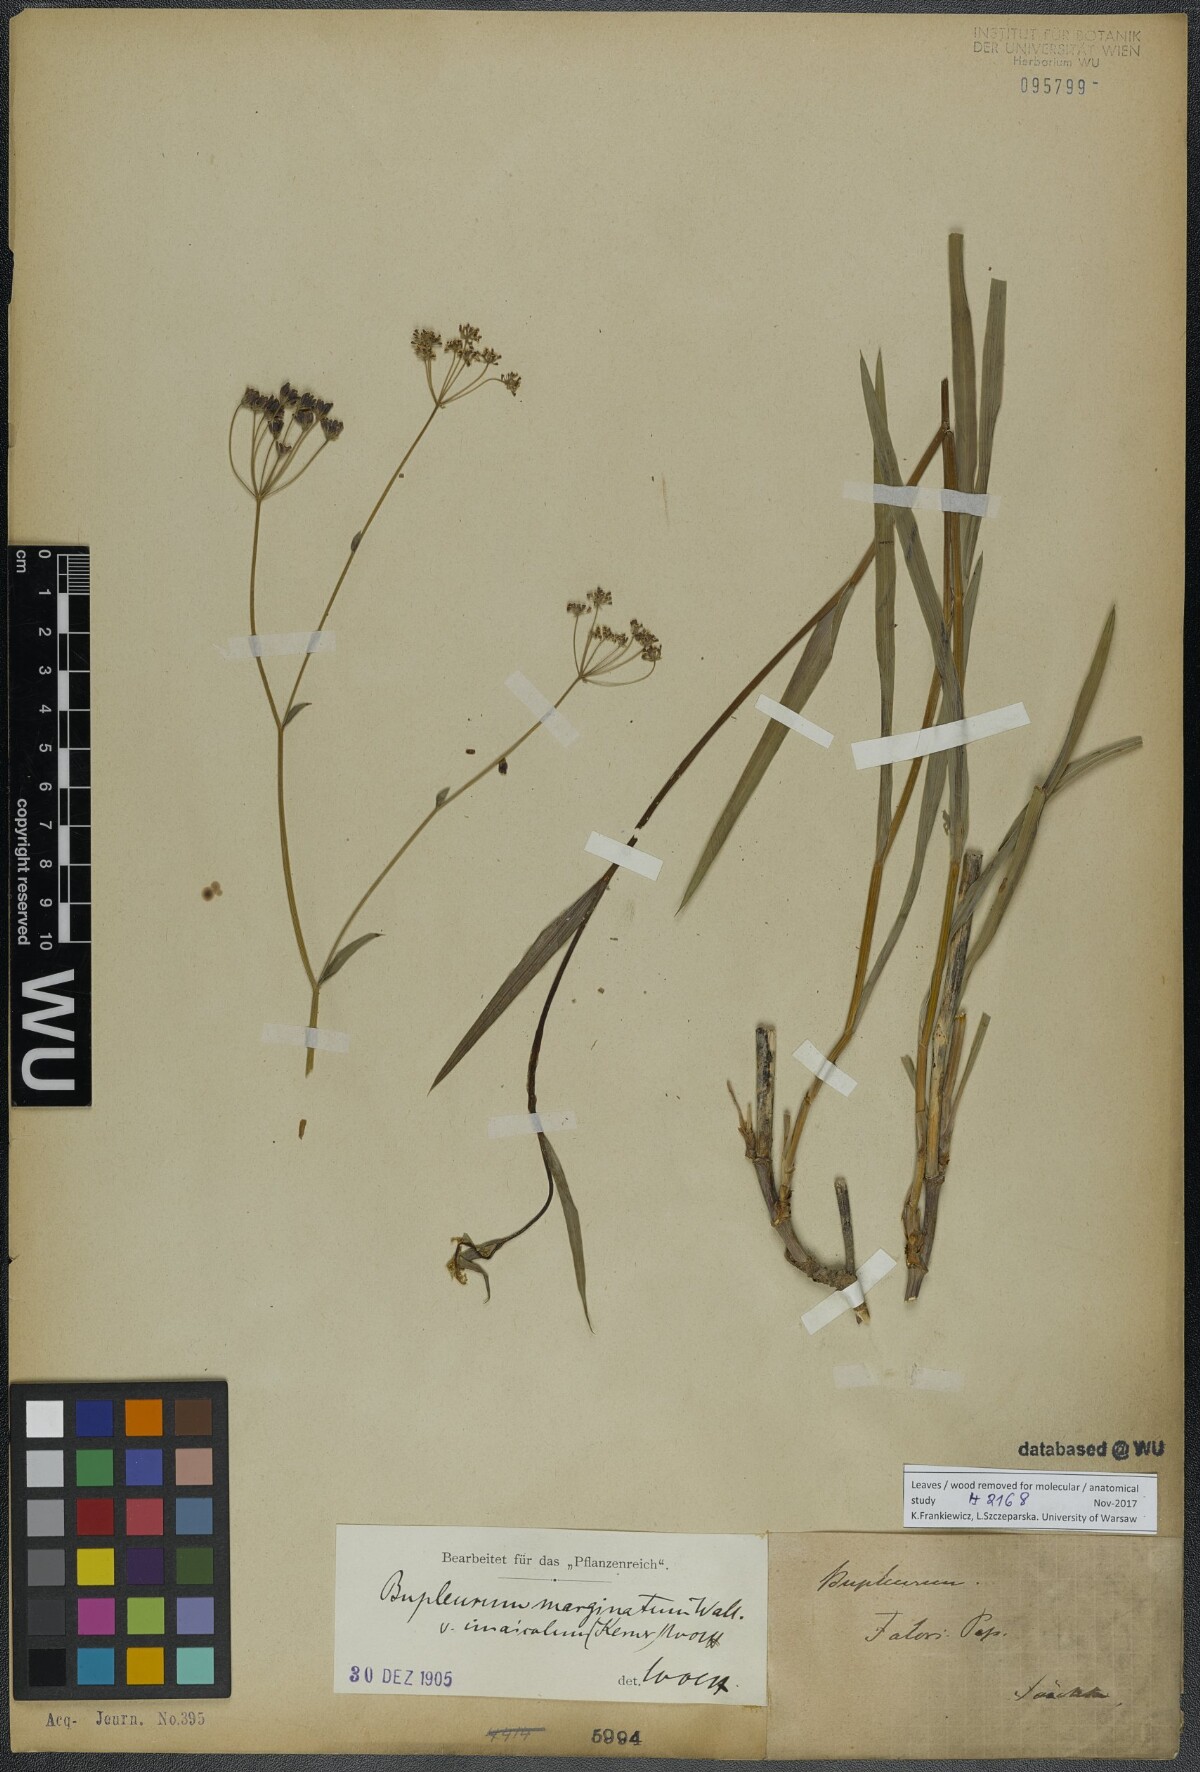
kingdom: Plantae
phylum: Tracheophyta
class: Magnoliopsida
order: Apiales
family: Apiaceae
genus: Bupleurum
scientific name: Bupleurum marginatum
